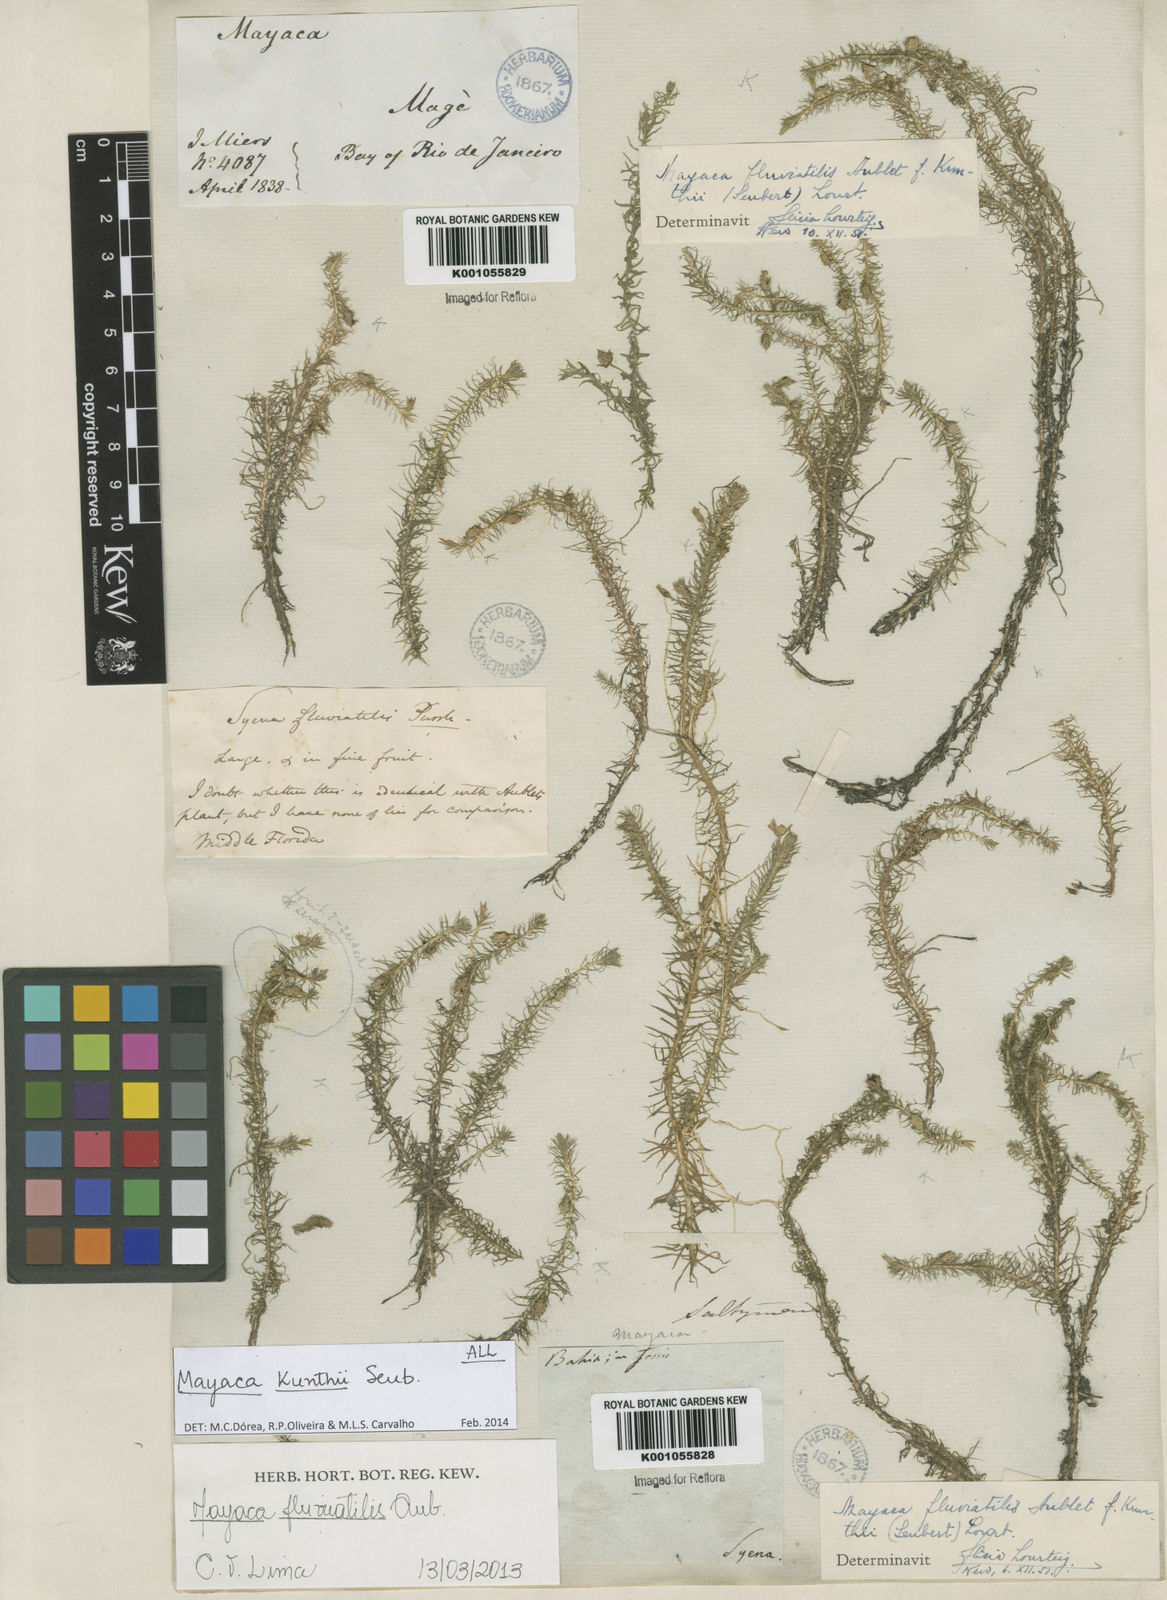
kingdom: Plantae
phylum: Tracheophyta
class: Liliopsida
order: Poales
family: Mayacaceae
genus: Mayaca
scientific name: Mayaca kunthii
